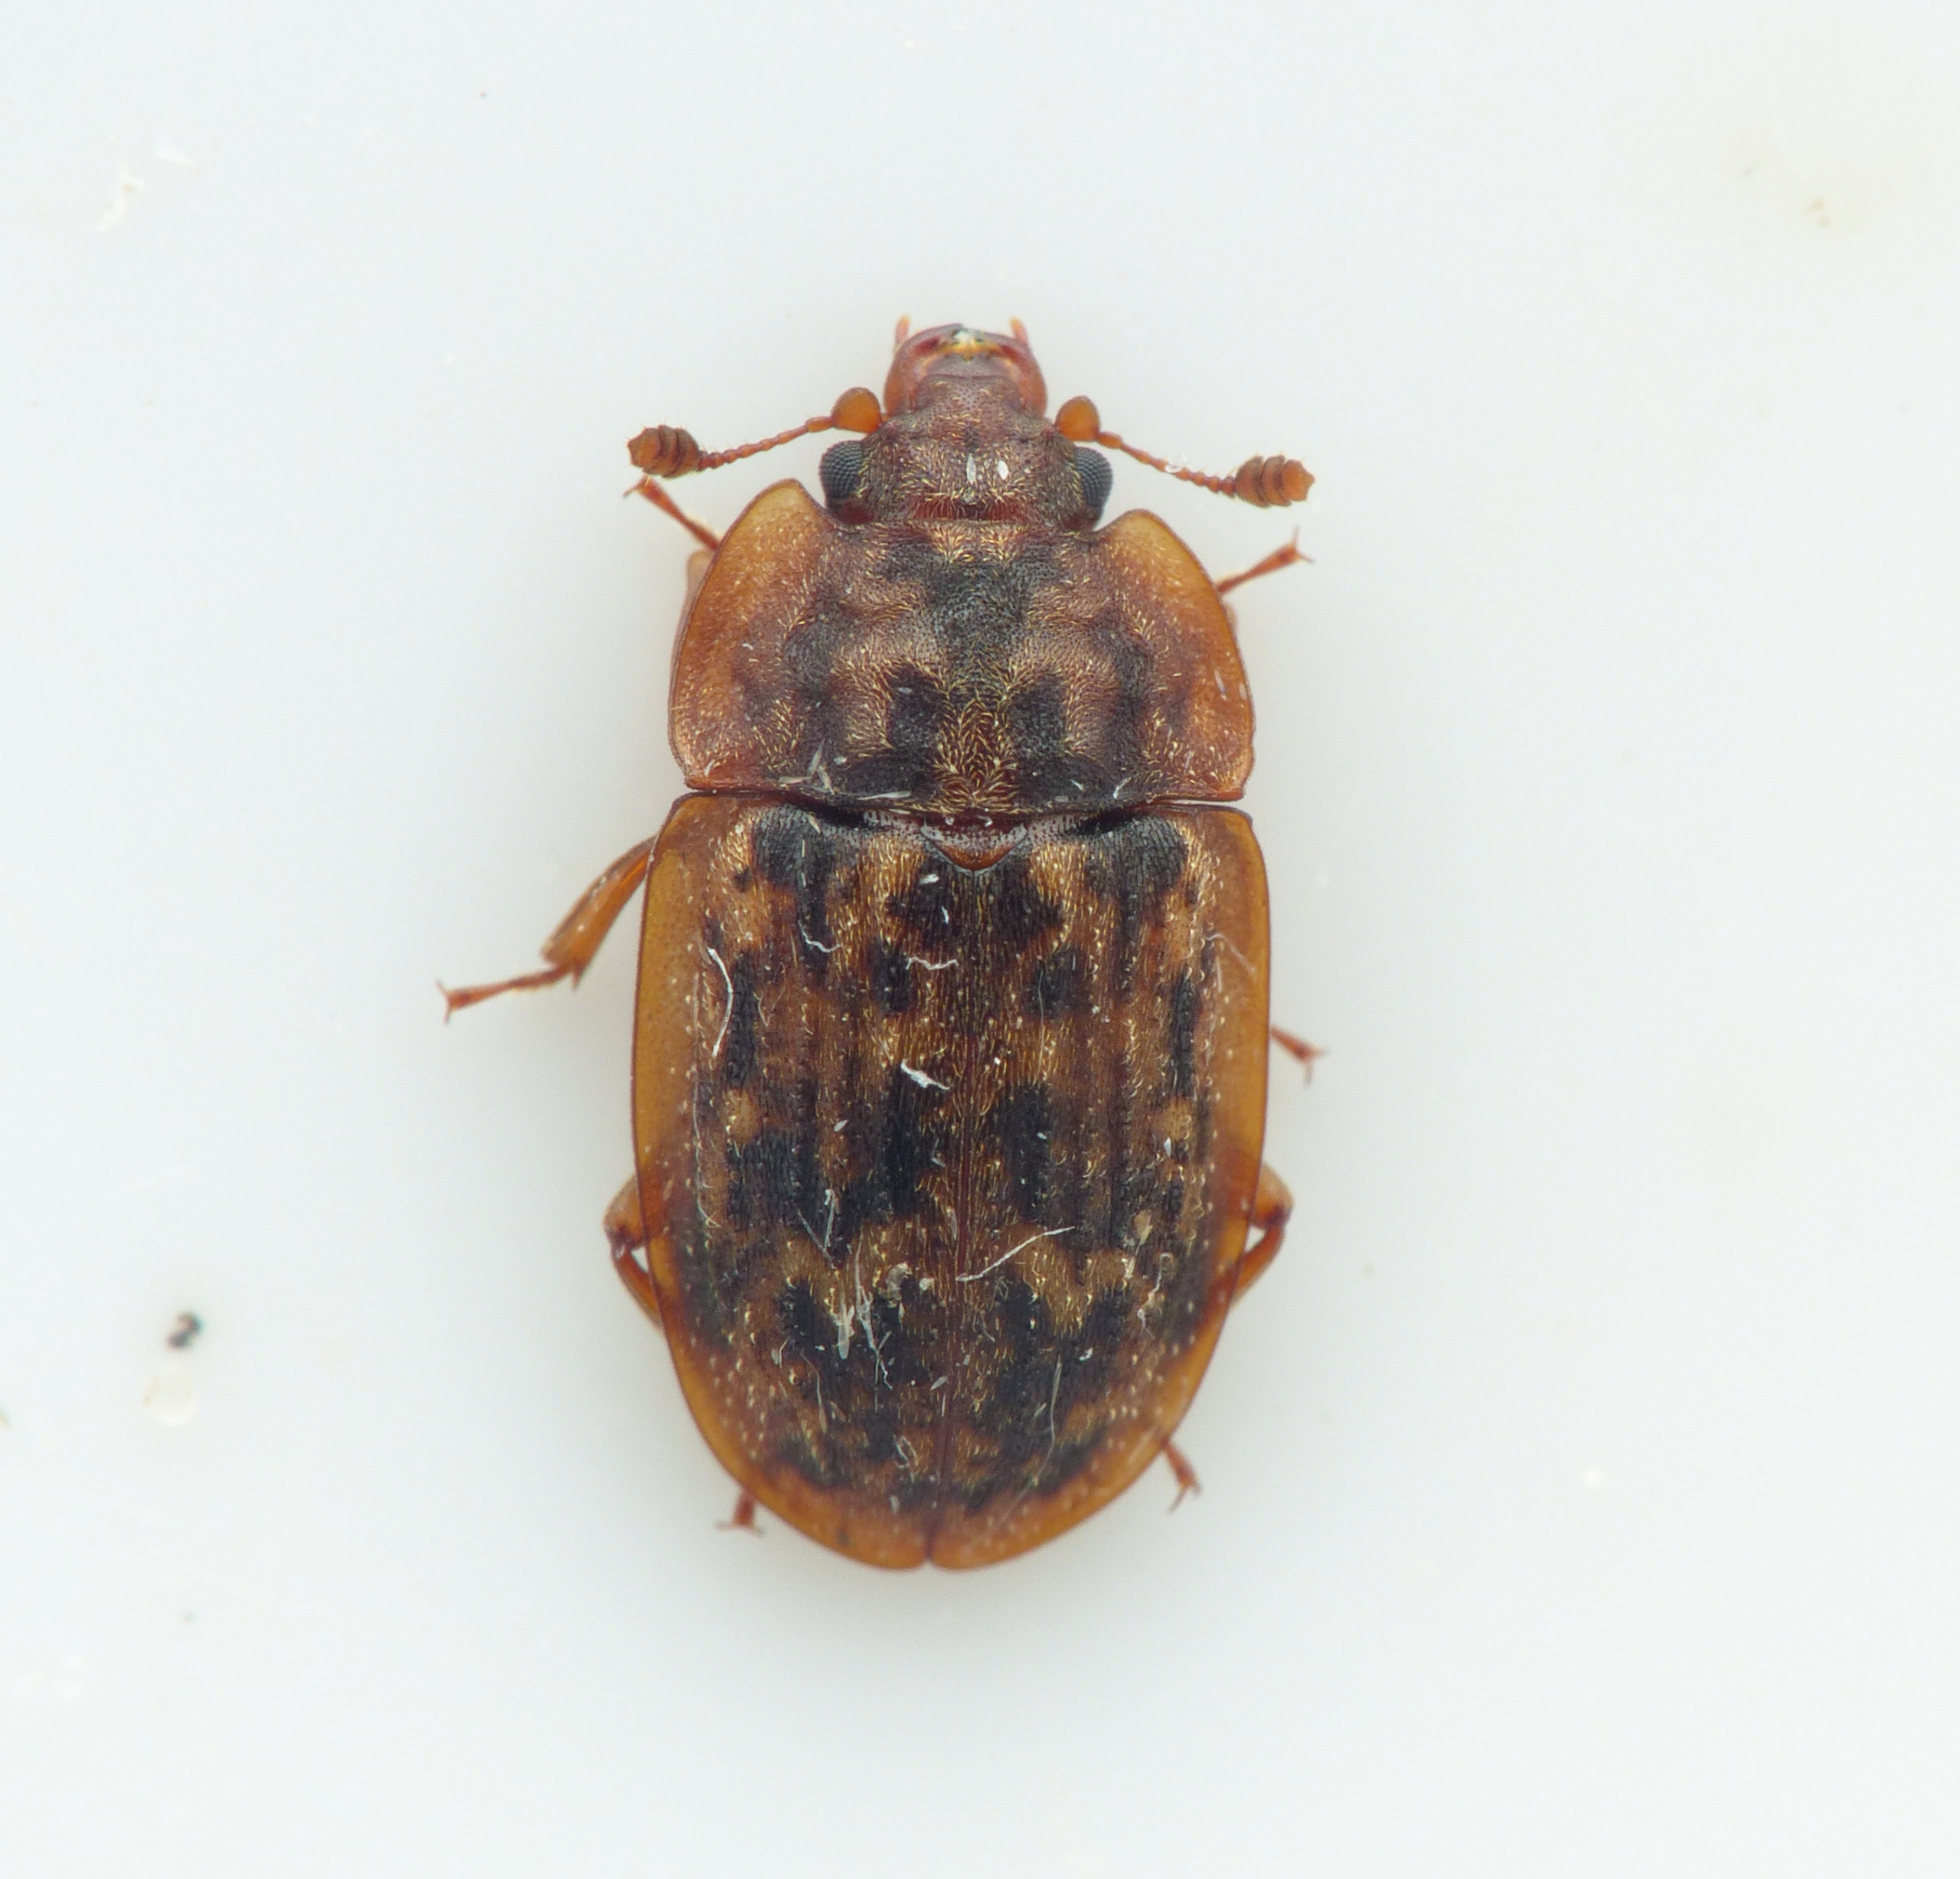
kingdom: Animalia
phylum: Arthropoda
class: Insecta
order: Coleoptera
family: Nitidulidae
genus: Soronia
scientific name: Soronia punctatissima
